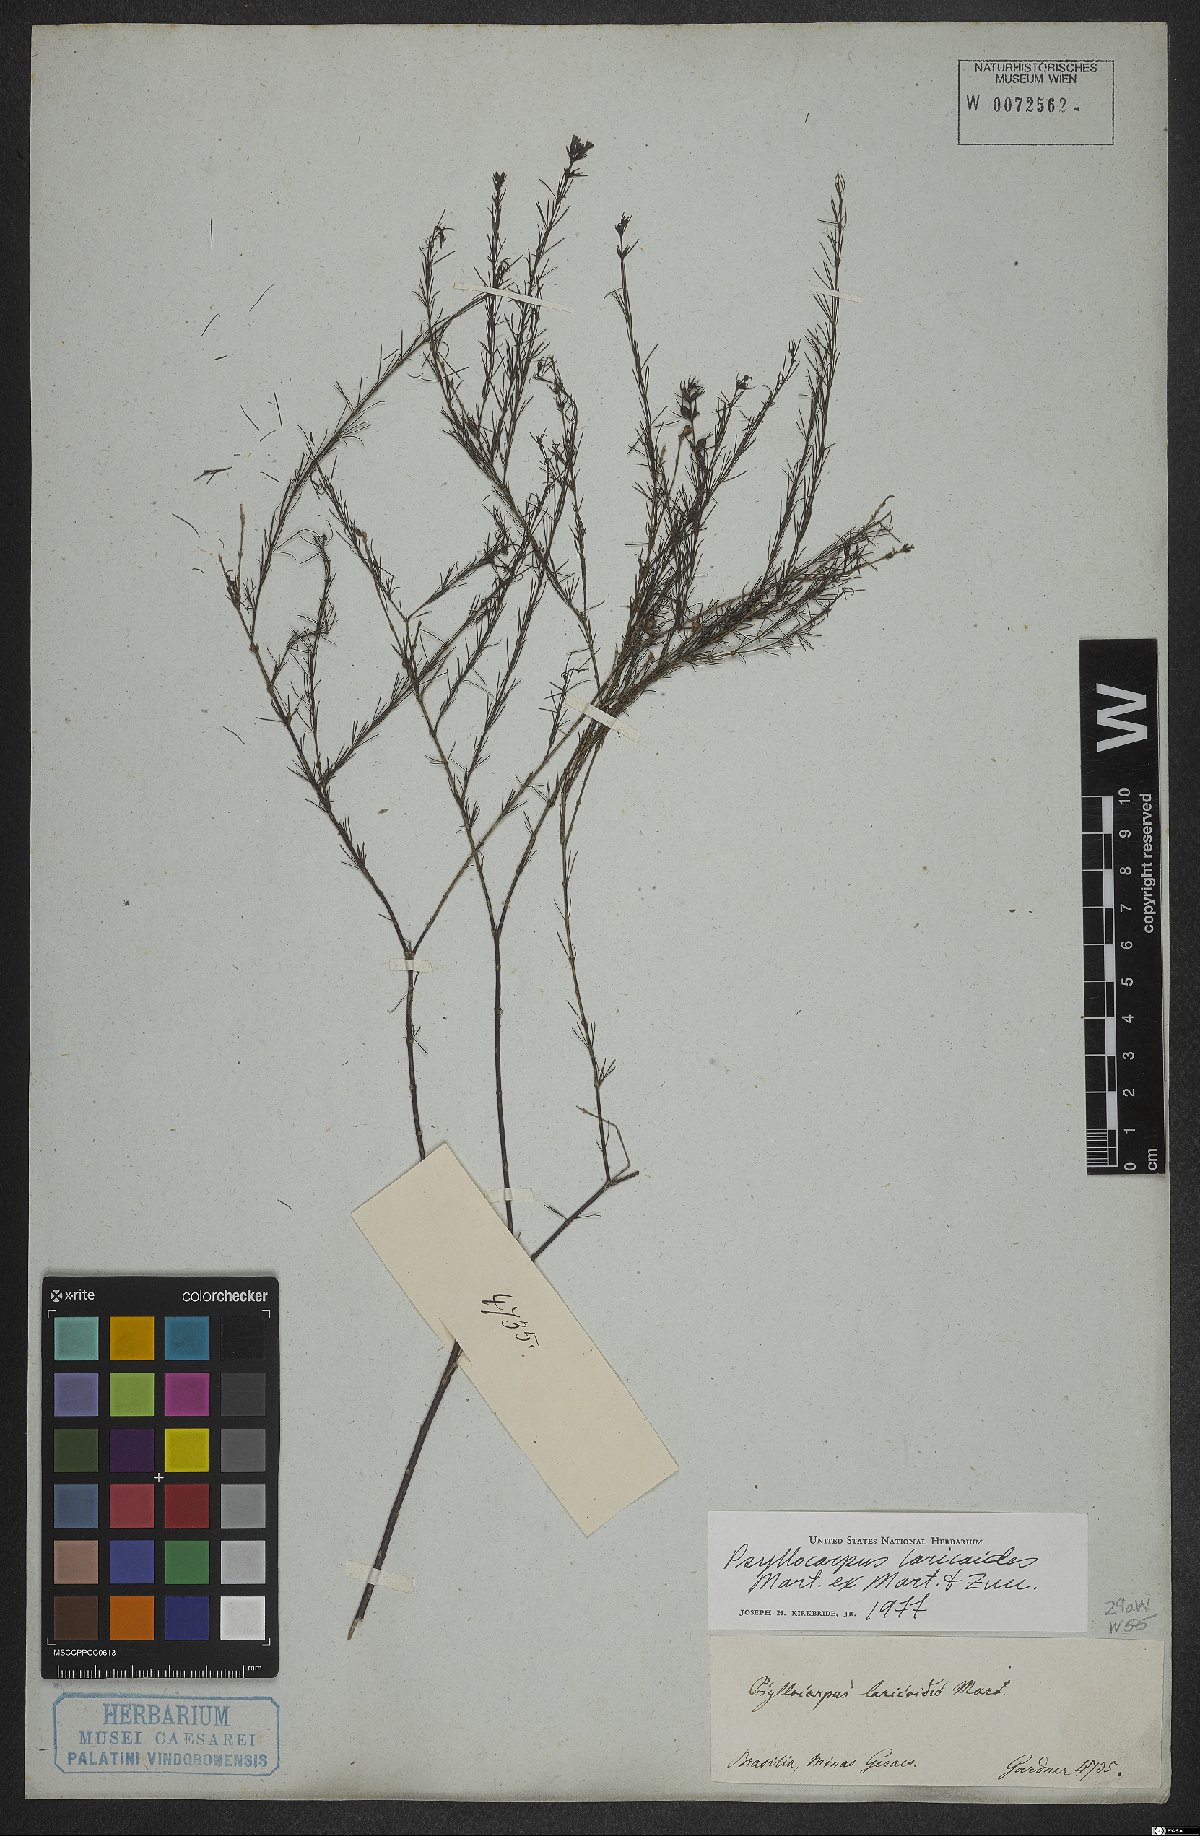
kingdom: Plantae
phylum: Tracheophyta
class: Magnoliopsida
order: Gentianales
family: Rubiaceae
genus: Psyllocarpus
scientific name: Psyllocarpus laricoides
